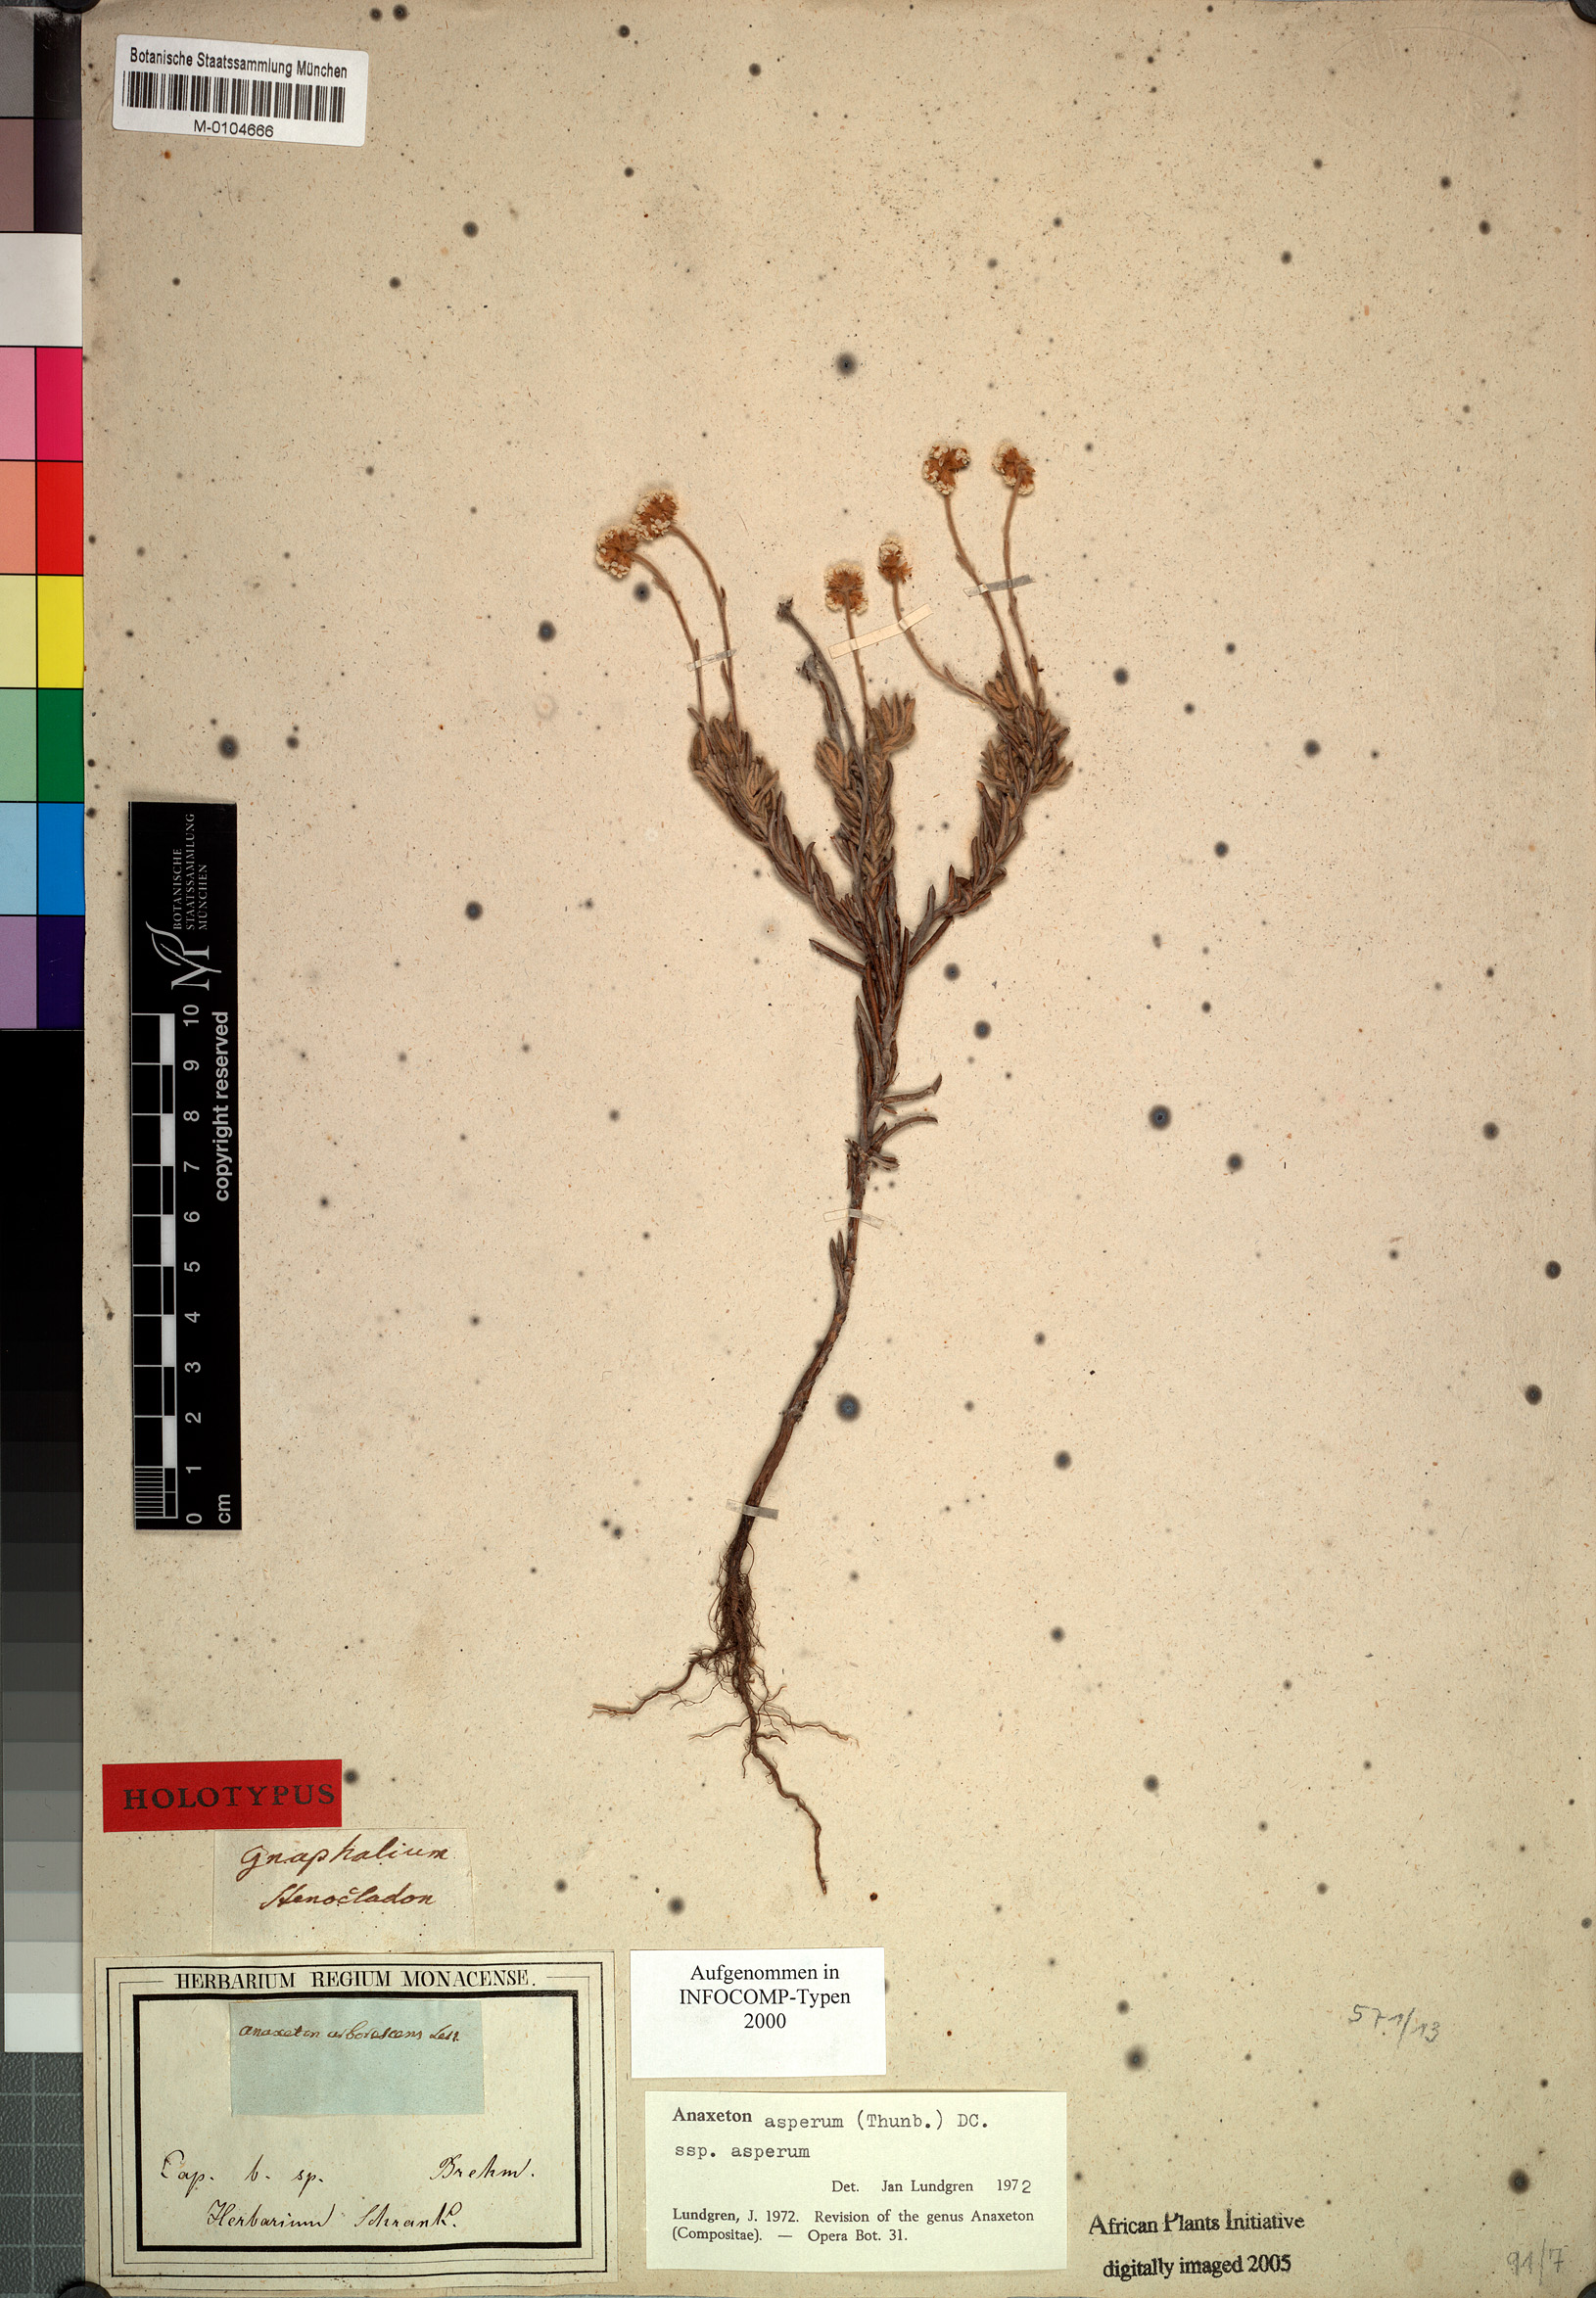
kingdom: Plantae
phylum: Tracheophyta
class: Magnoliopsida
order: Asterales
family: Asteraceae
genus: Anaxeton
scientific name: Anaxeton asperum
